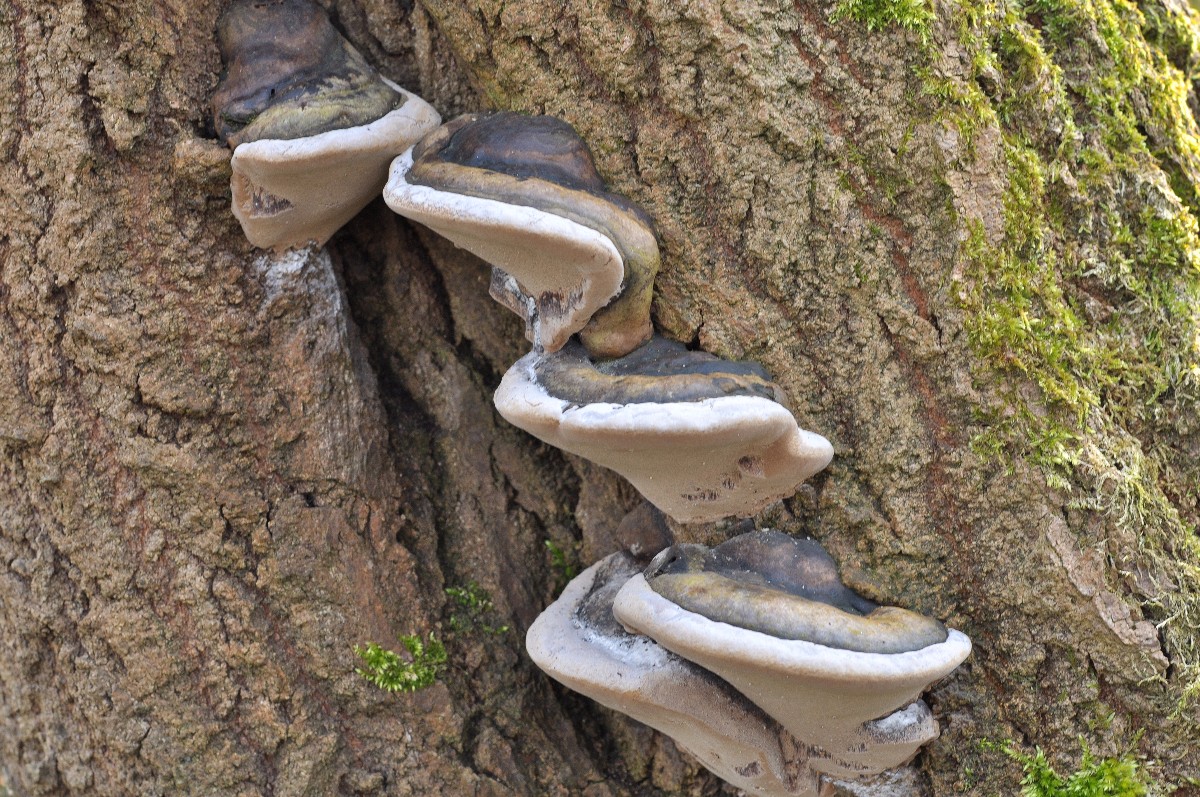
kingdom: Fungi
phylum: Basidiomycota
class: Agaricomycetes
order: Hymenochaetales
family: Hymenochaetaceae
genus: Phellinus
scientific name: Phellinus igniarius
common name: almindelig ildporesvamp
